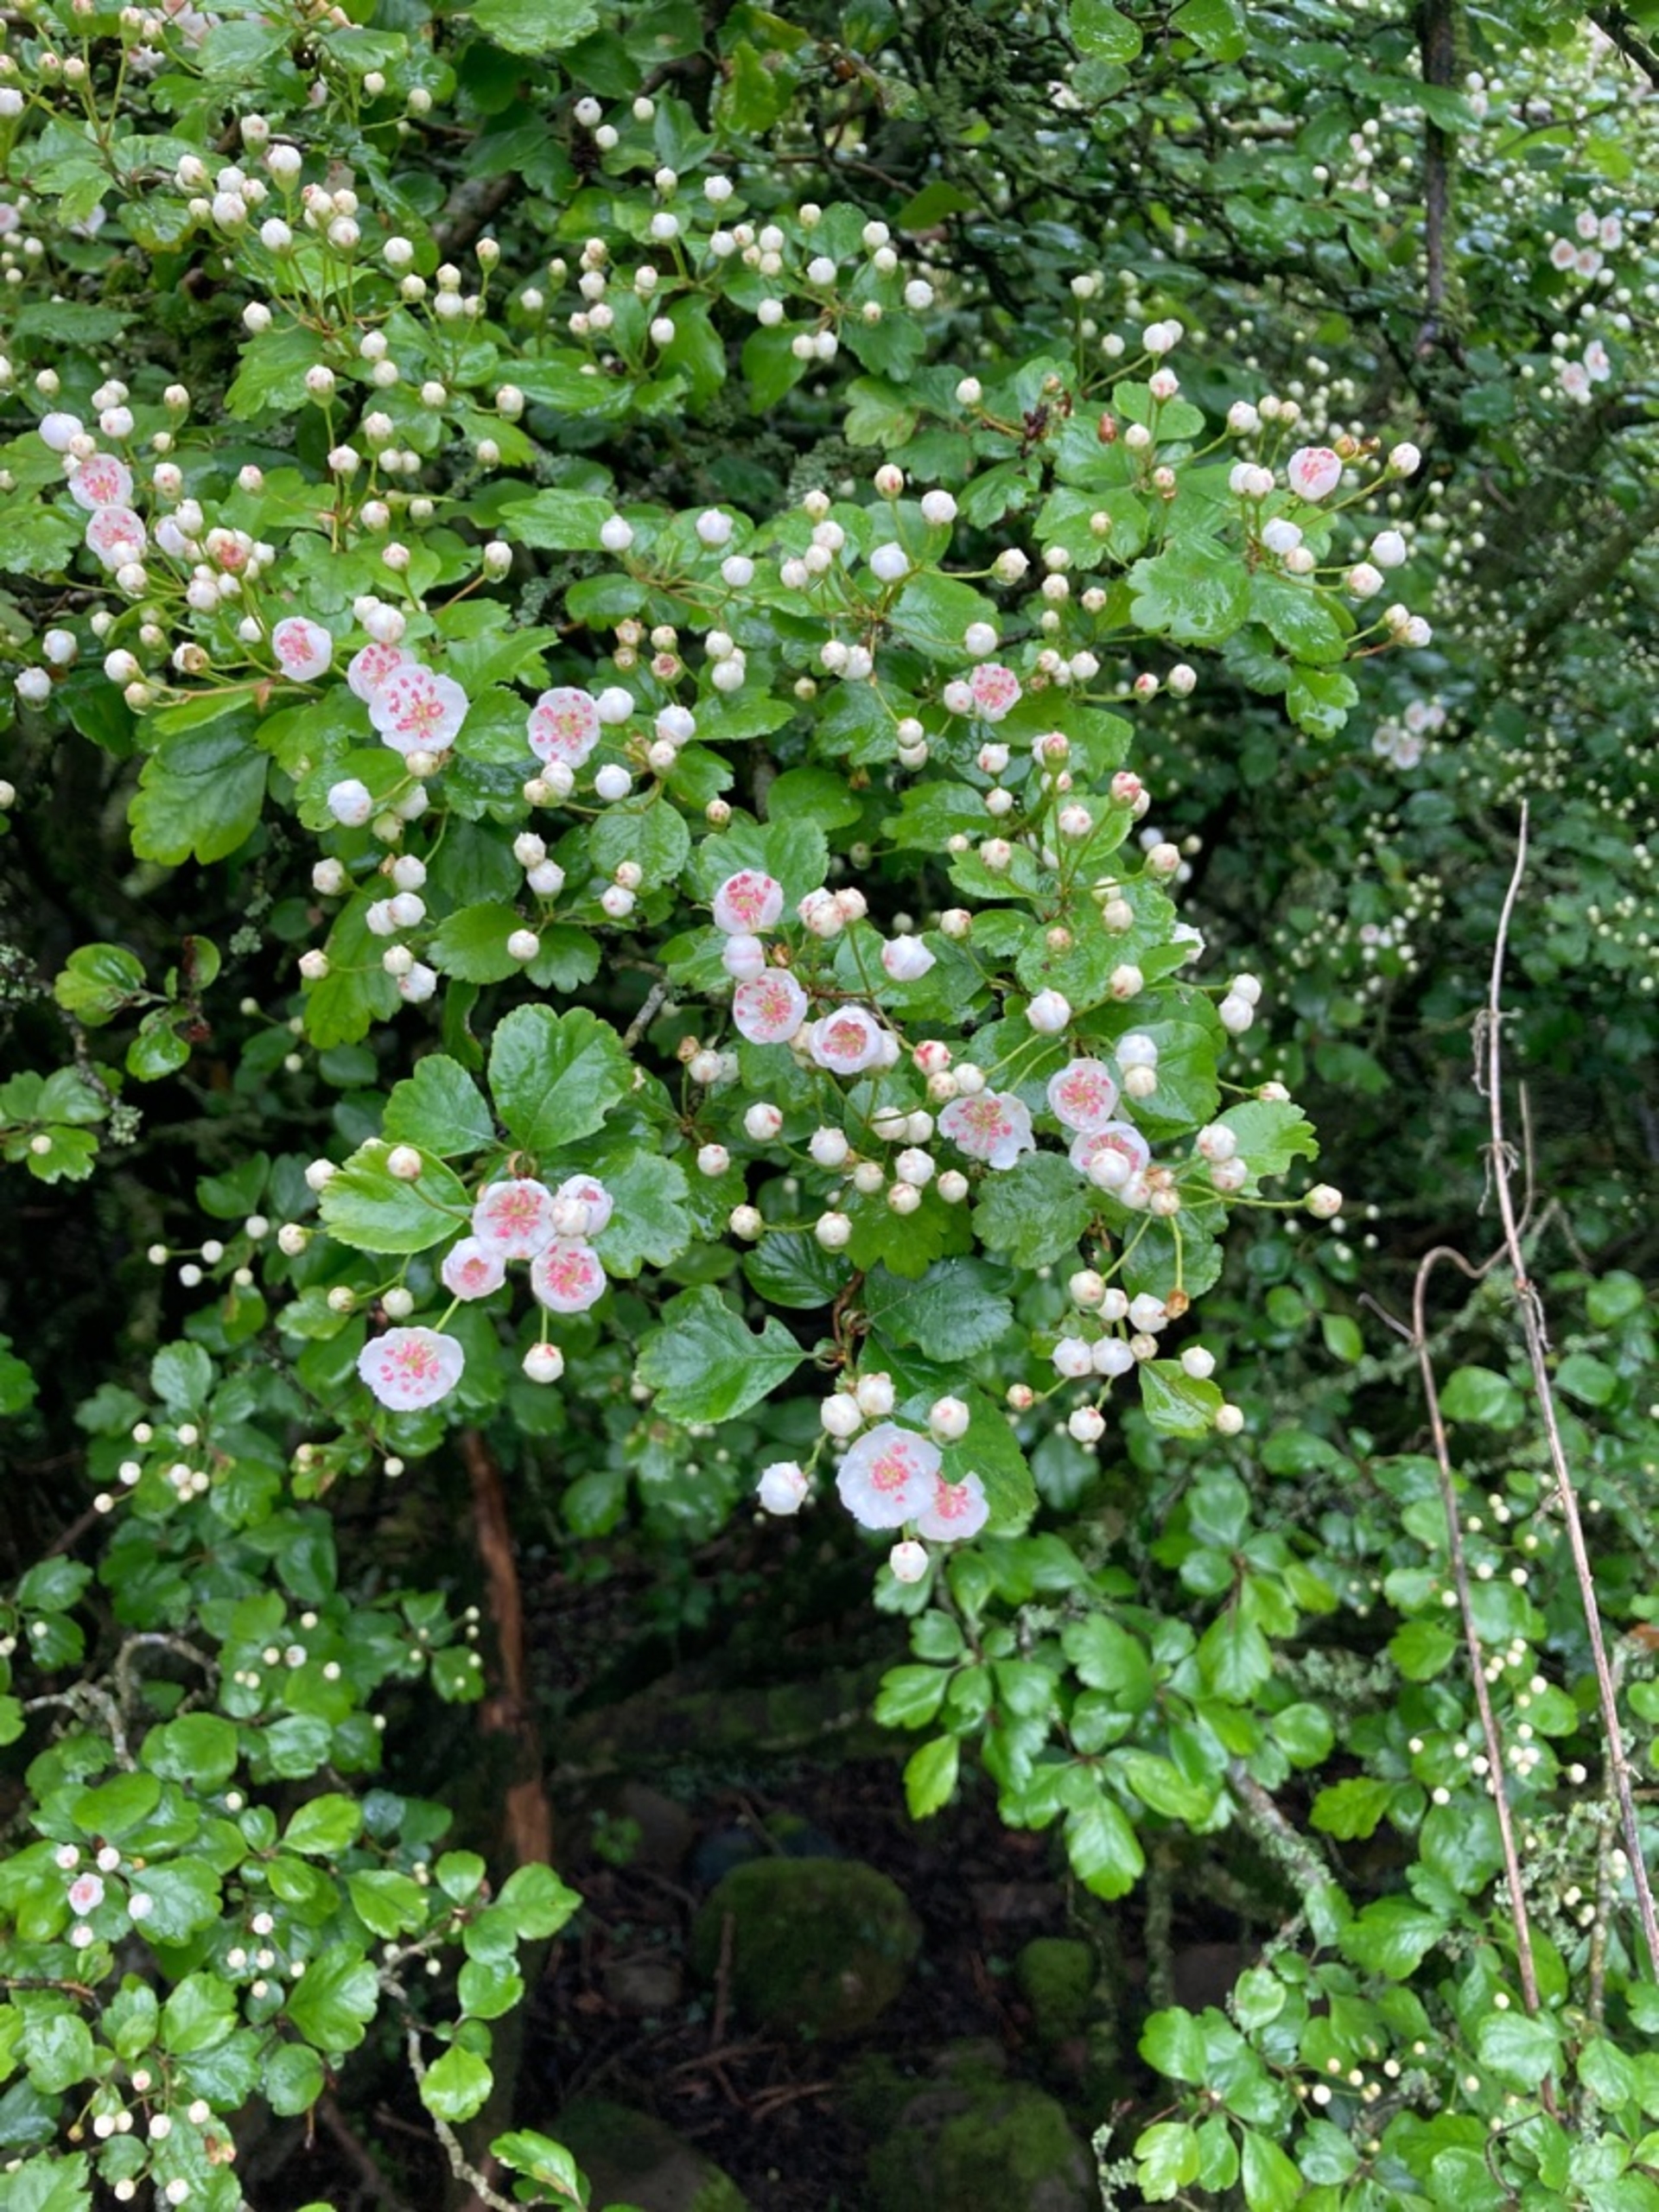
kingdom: Plantae
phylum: Tracheophyta
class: Magnoliopsida
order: Rosales
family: Rosaceae
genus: Crataegus
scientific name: Crataegus laevigata
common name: Almindelig hvidtjørn
